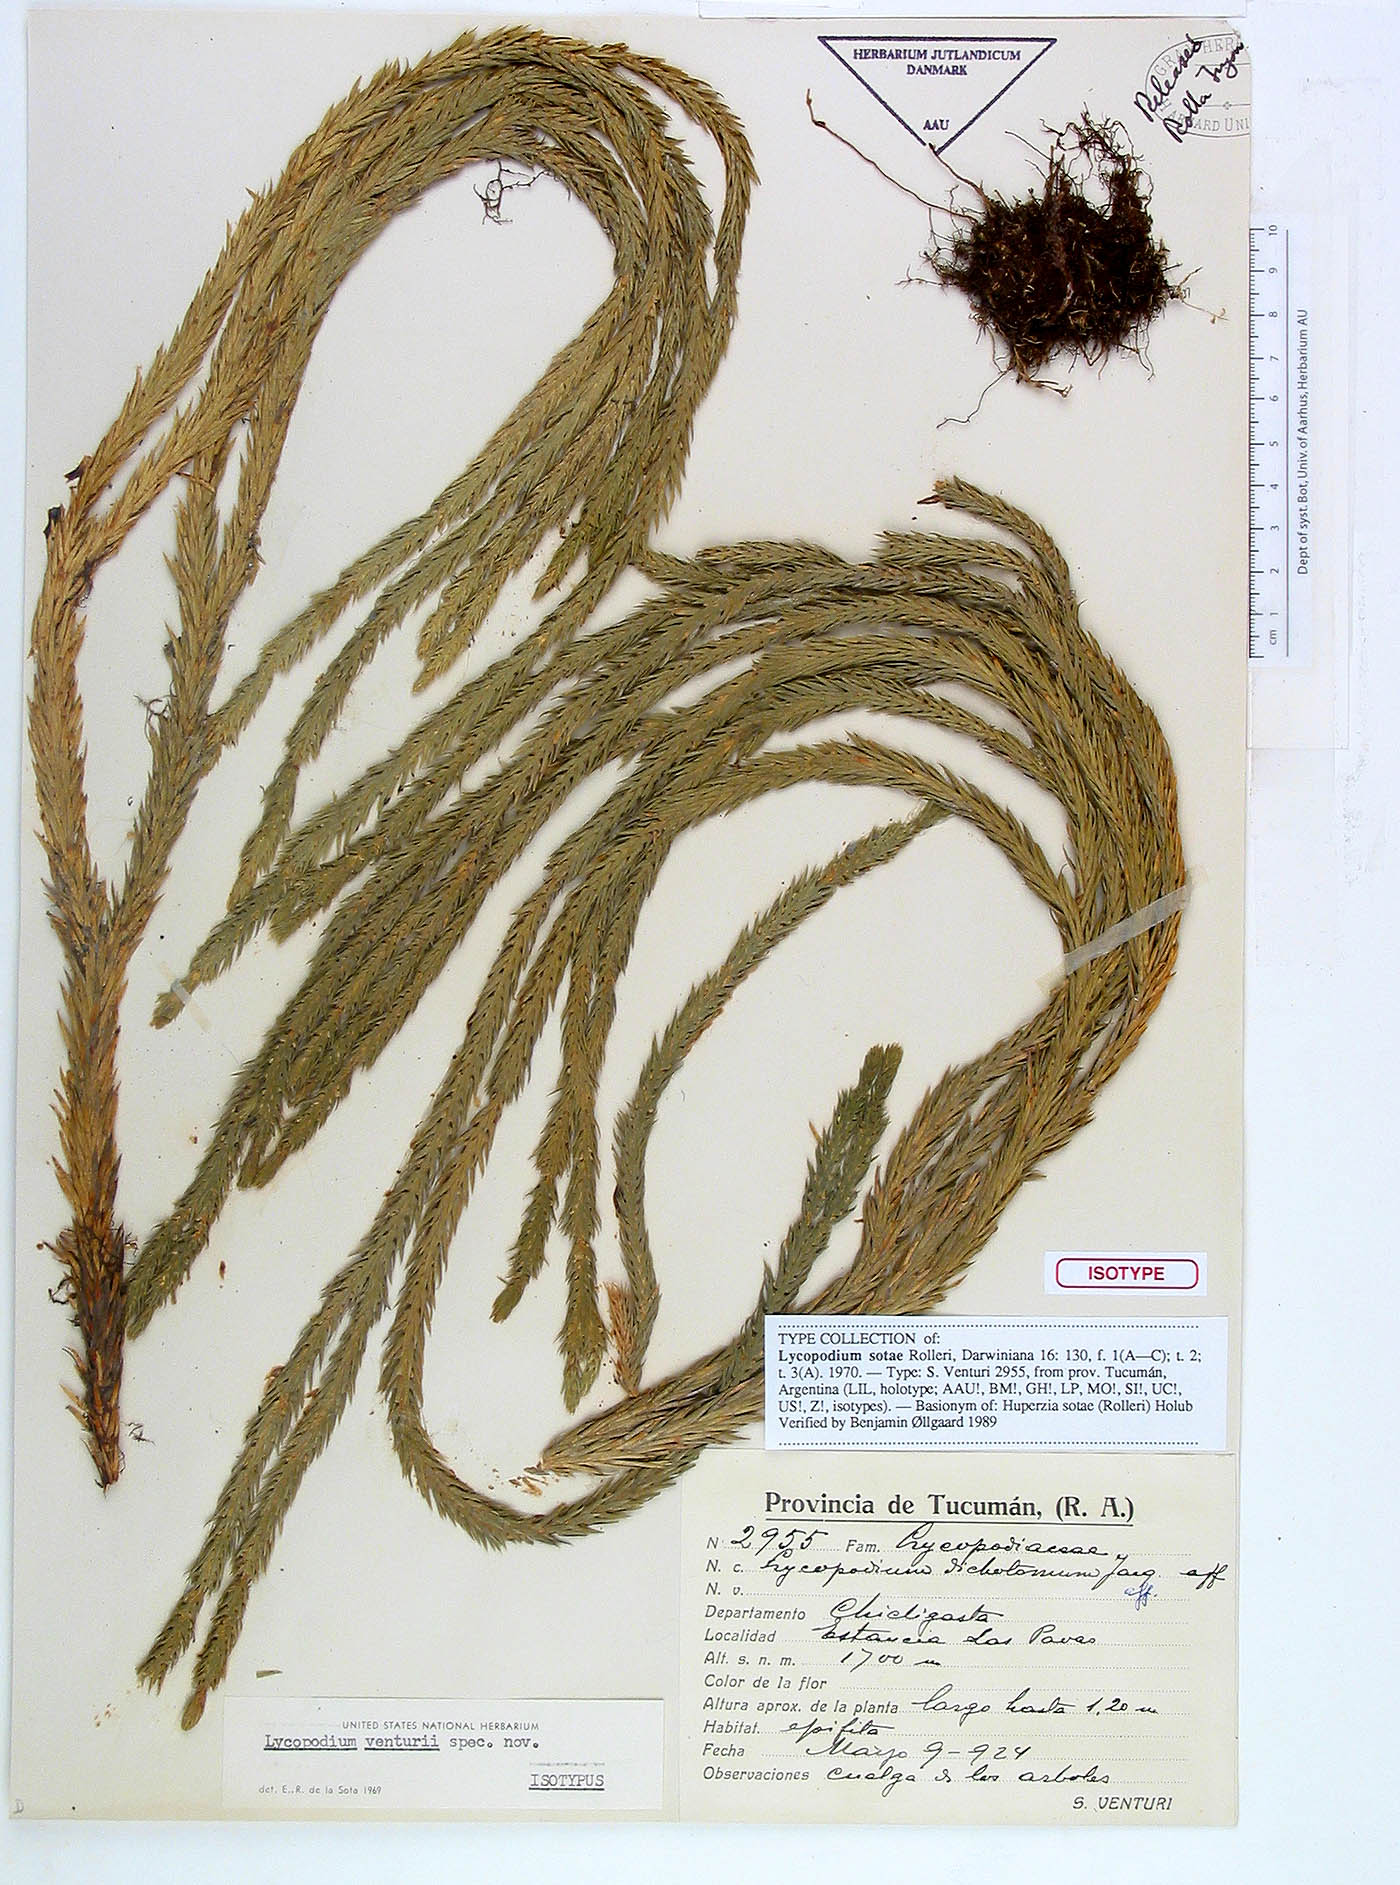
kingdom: Plantae
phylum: Tracheophyta
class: Lycopodiopsida
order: Lycopodiales
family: Lycopodiaceae
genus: Phlegmariurus
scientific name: Phlegmariurus sotae
